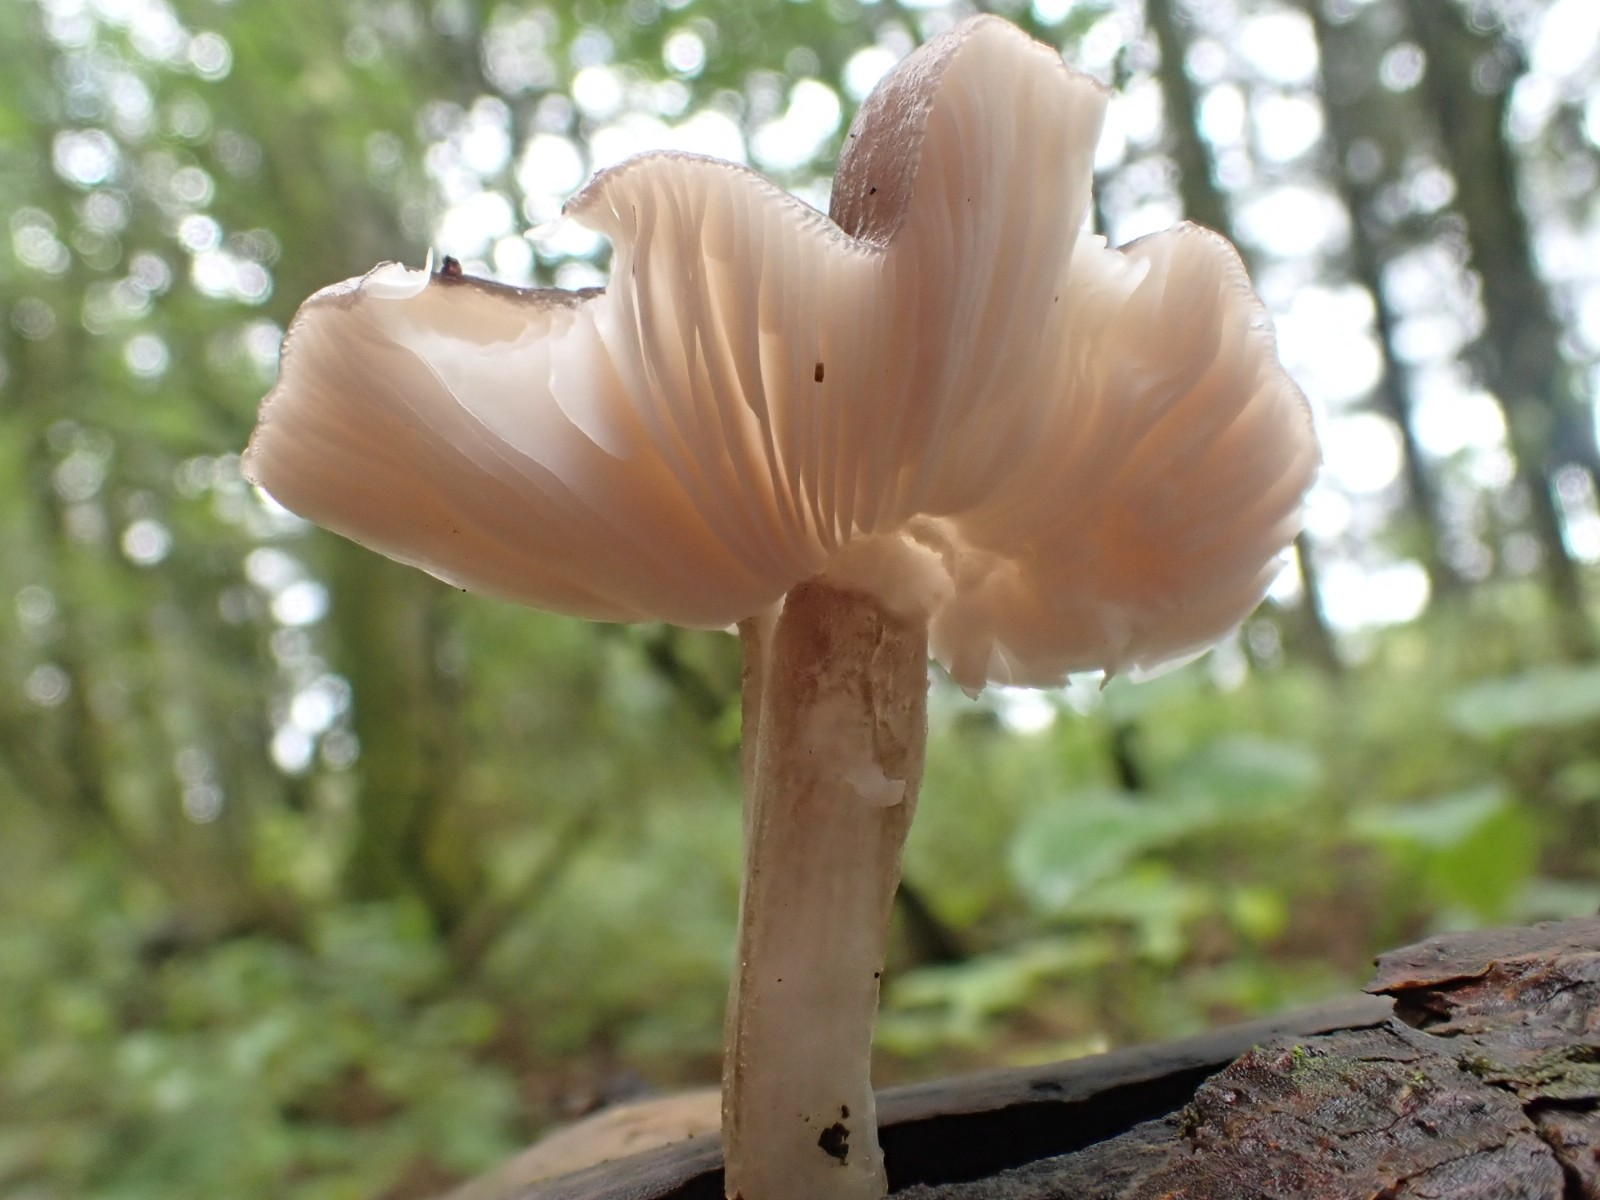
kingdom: Fungi
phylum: Basidiomycota
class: Agaricomycetes
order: Agaricales
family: Pluteaceae
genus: Pluteus
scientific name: Pluteus
